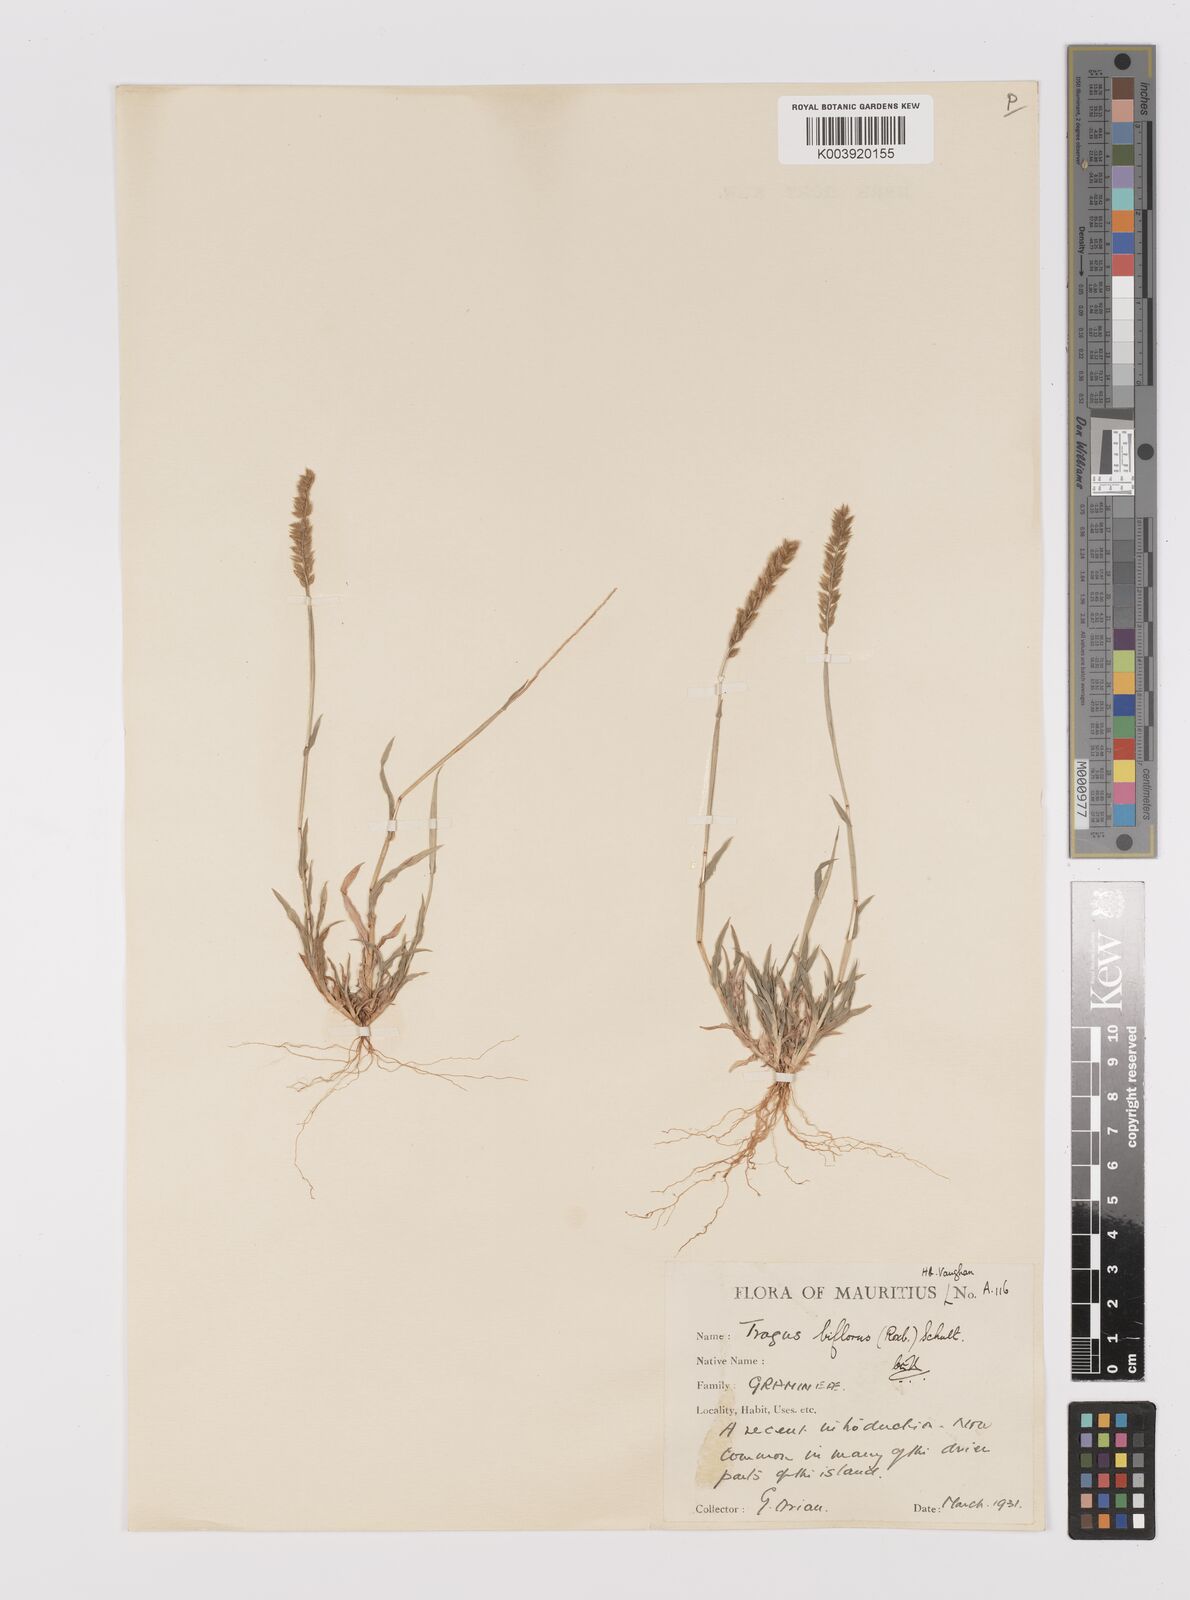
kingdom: Plantae
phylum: Tracheophyta
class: Liliopsida
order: Poales
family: Poaceae
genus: Tragus
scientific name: Tragus mongolorum
